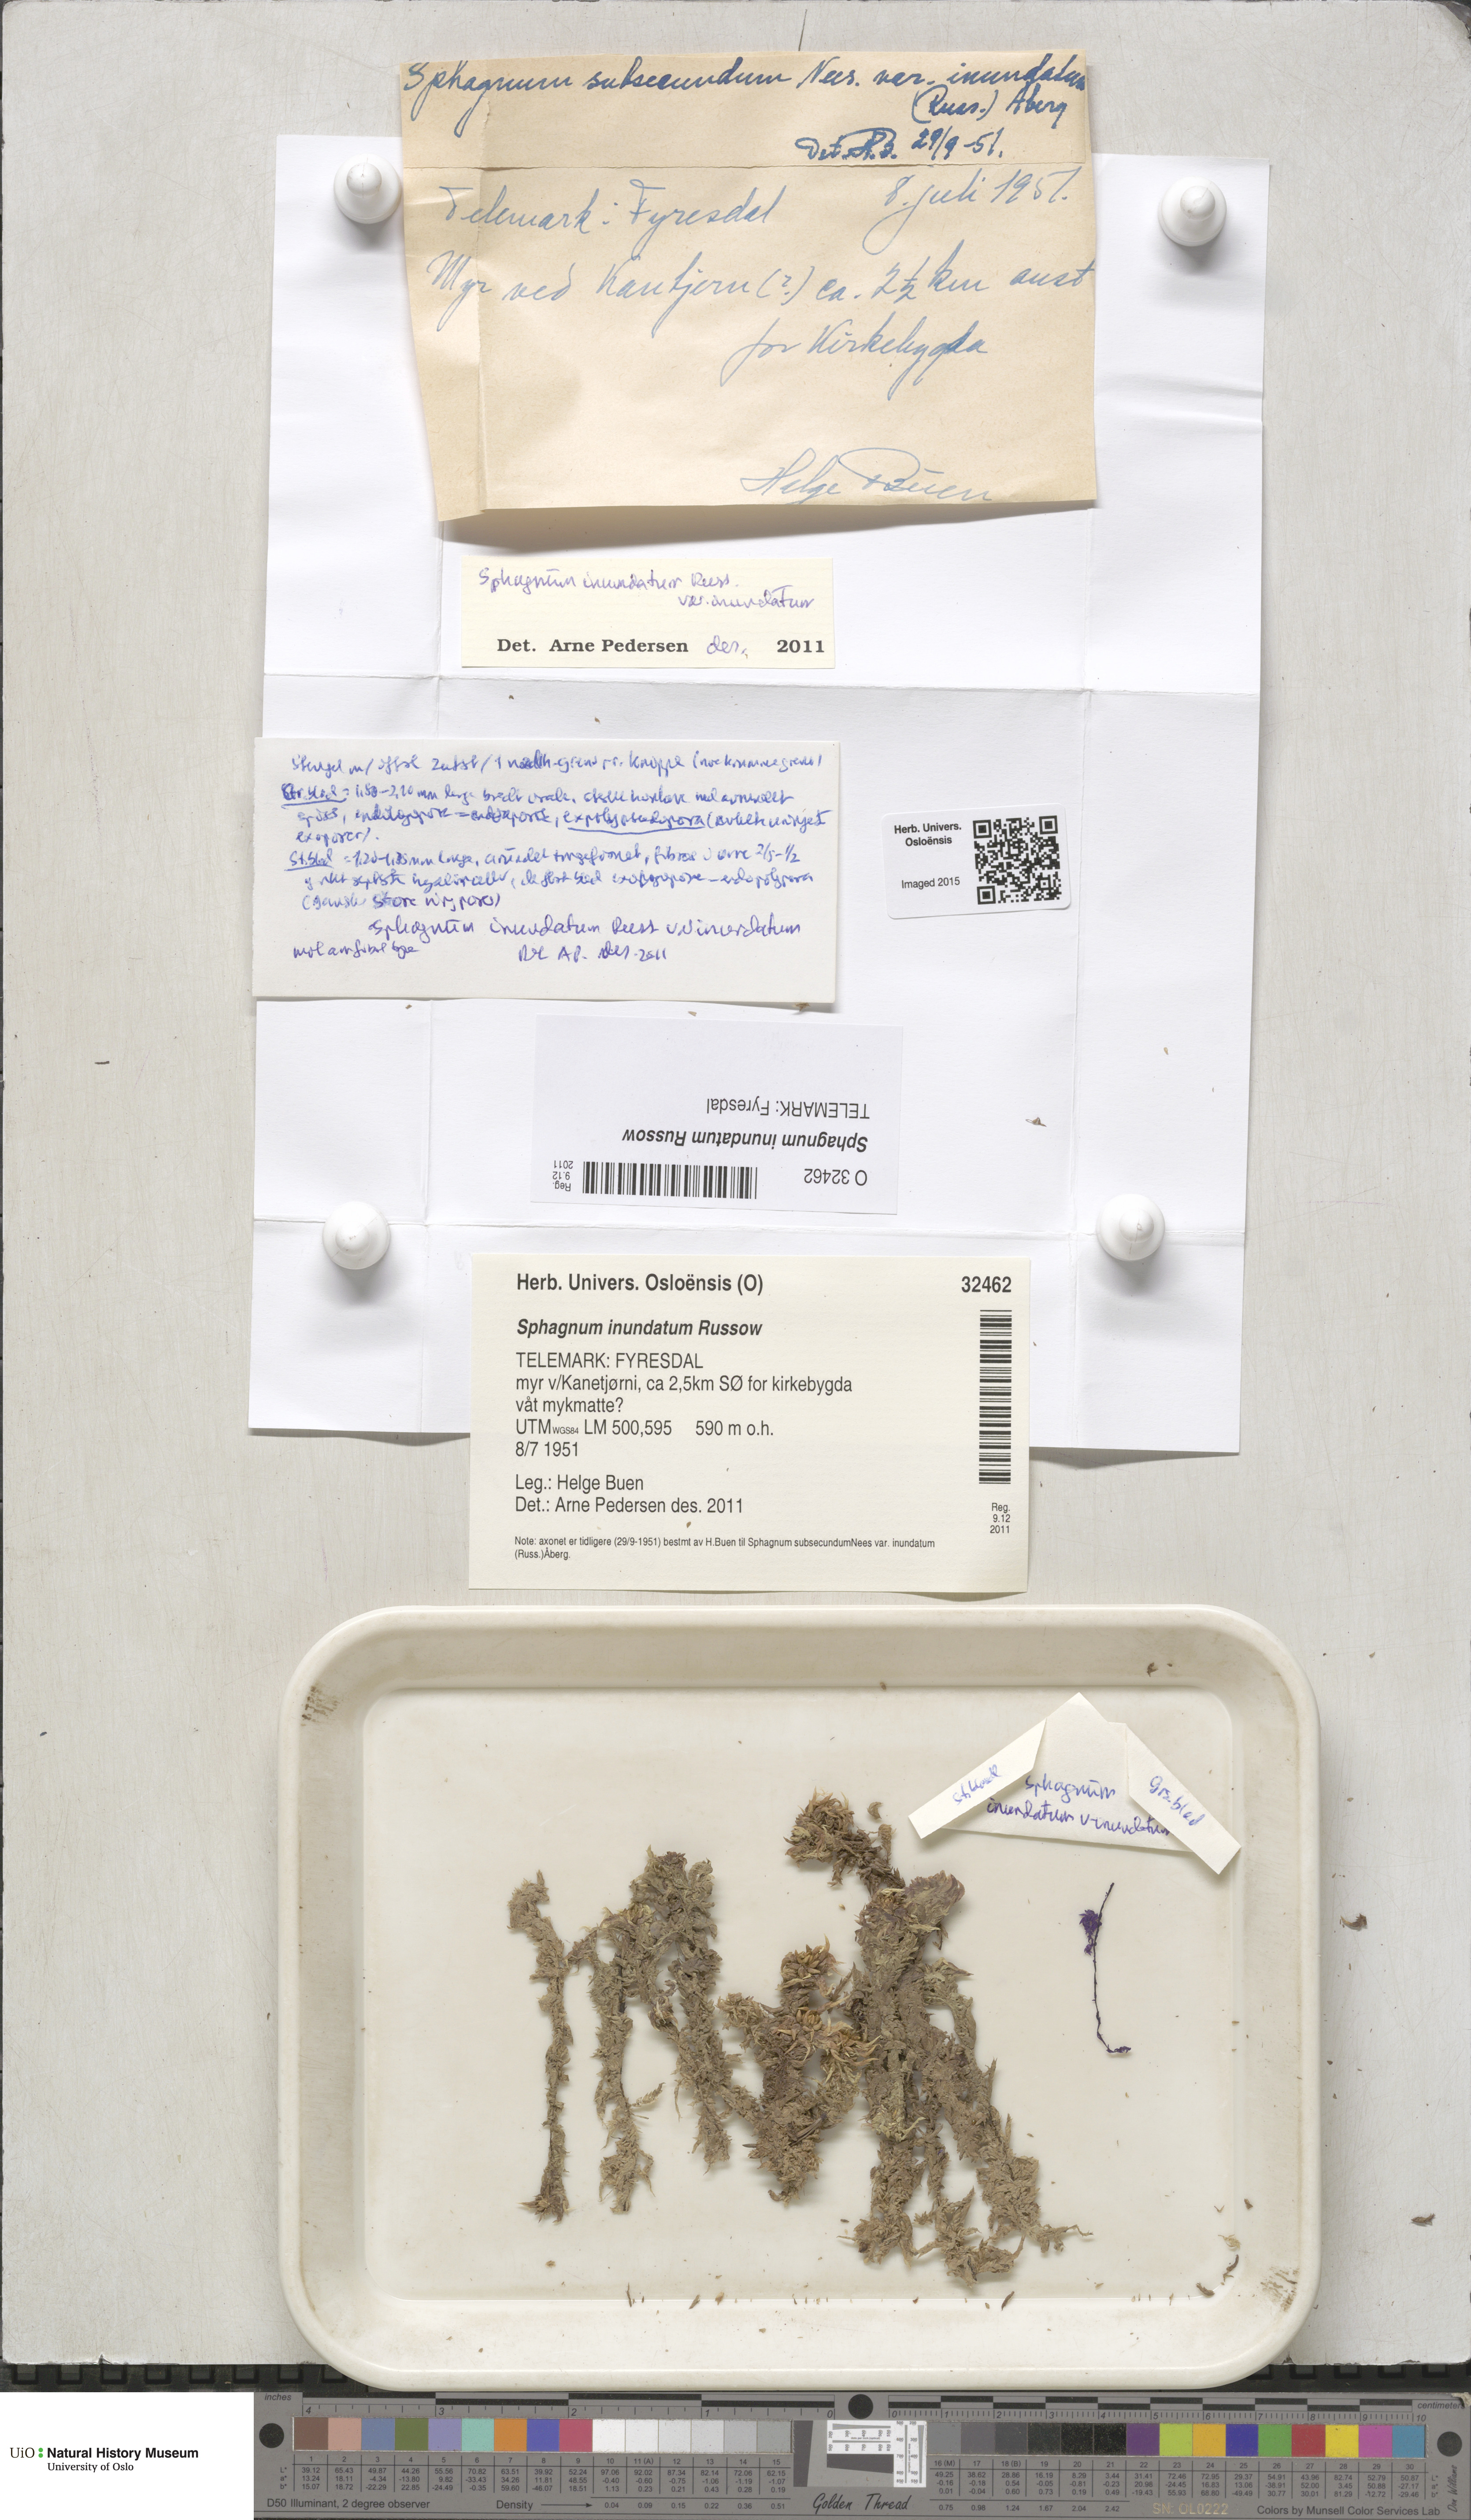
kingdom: Plantae
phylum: Bryophyta
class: Sphagnopsida
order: Sphagnales
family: Sphagnaceae
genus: Sphagnum
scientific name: Sphagnum inundatum
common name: Lesser cow-horn bog-moss
